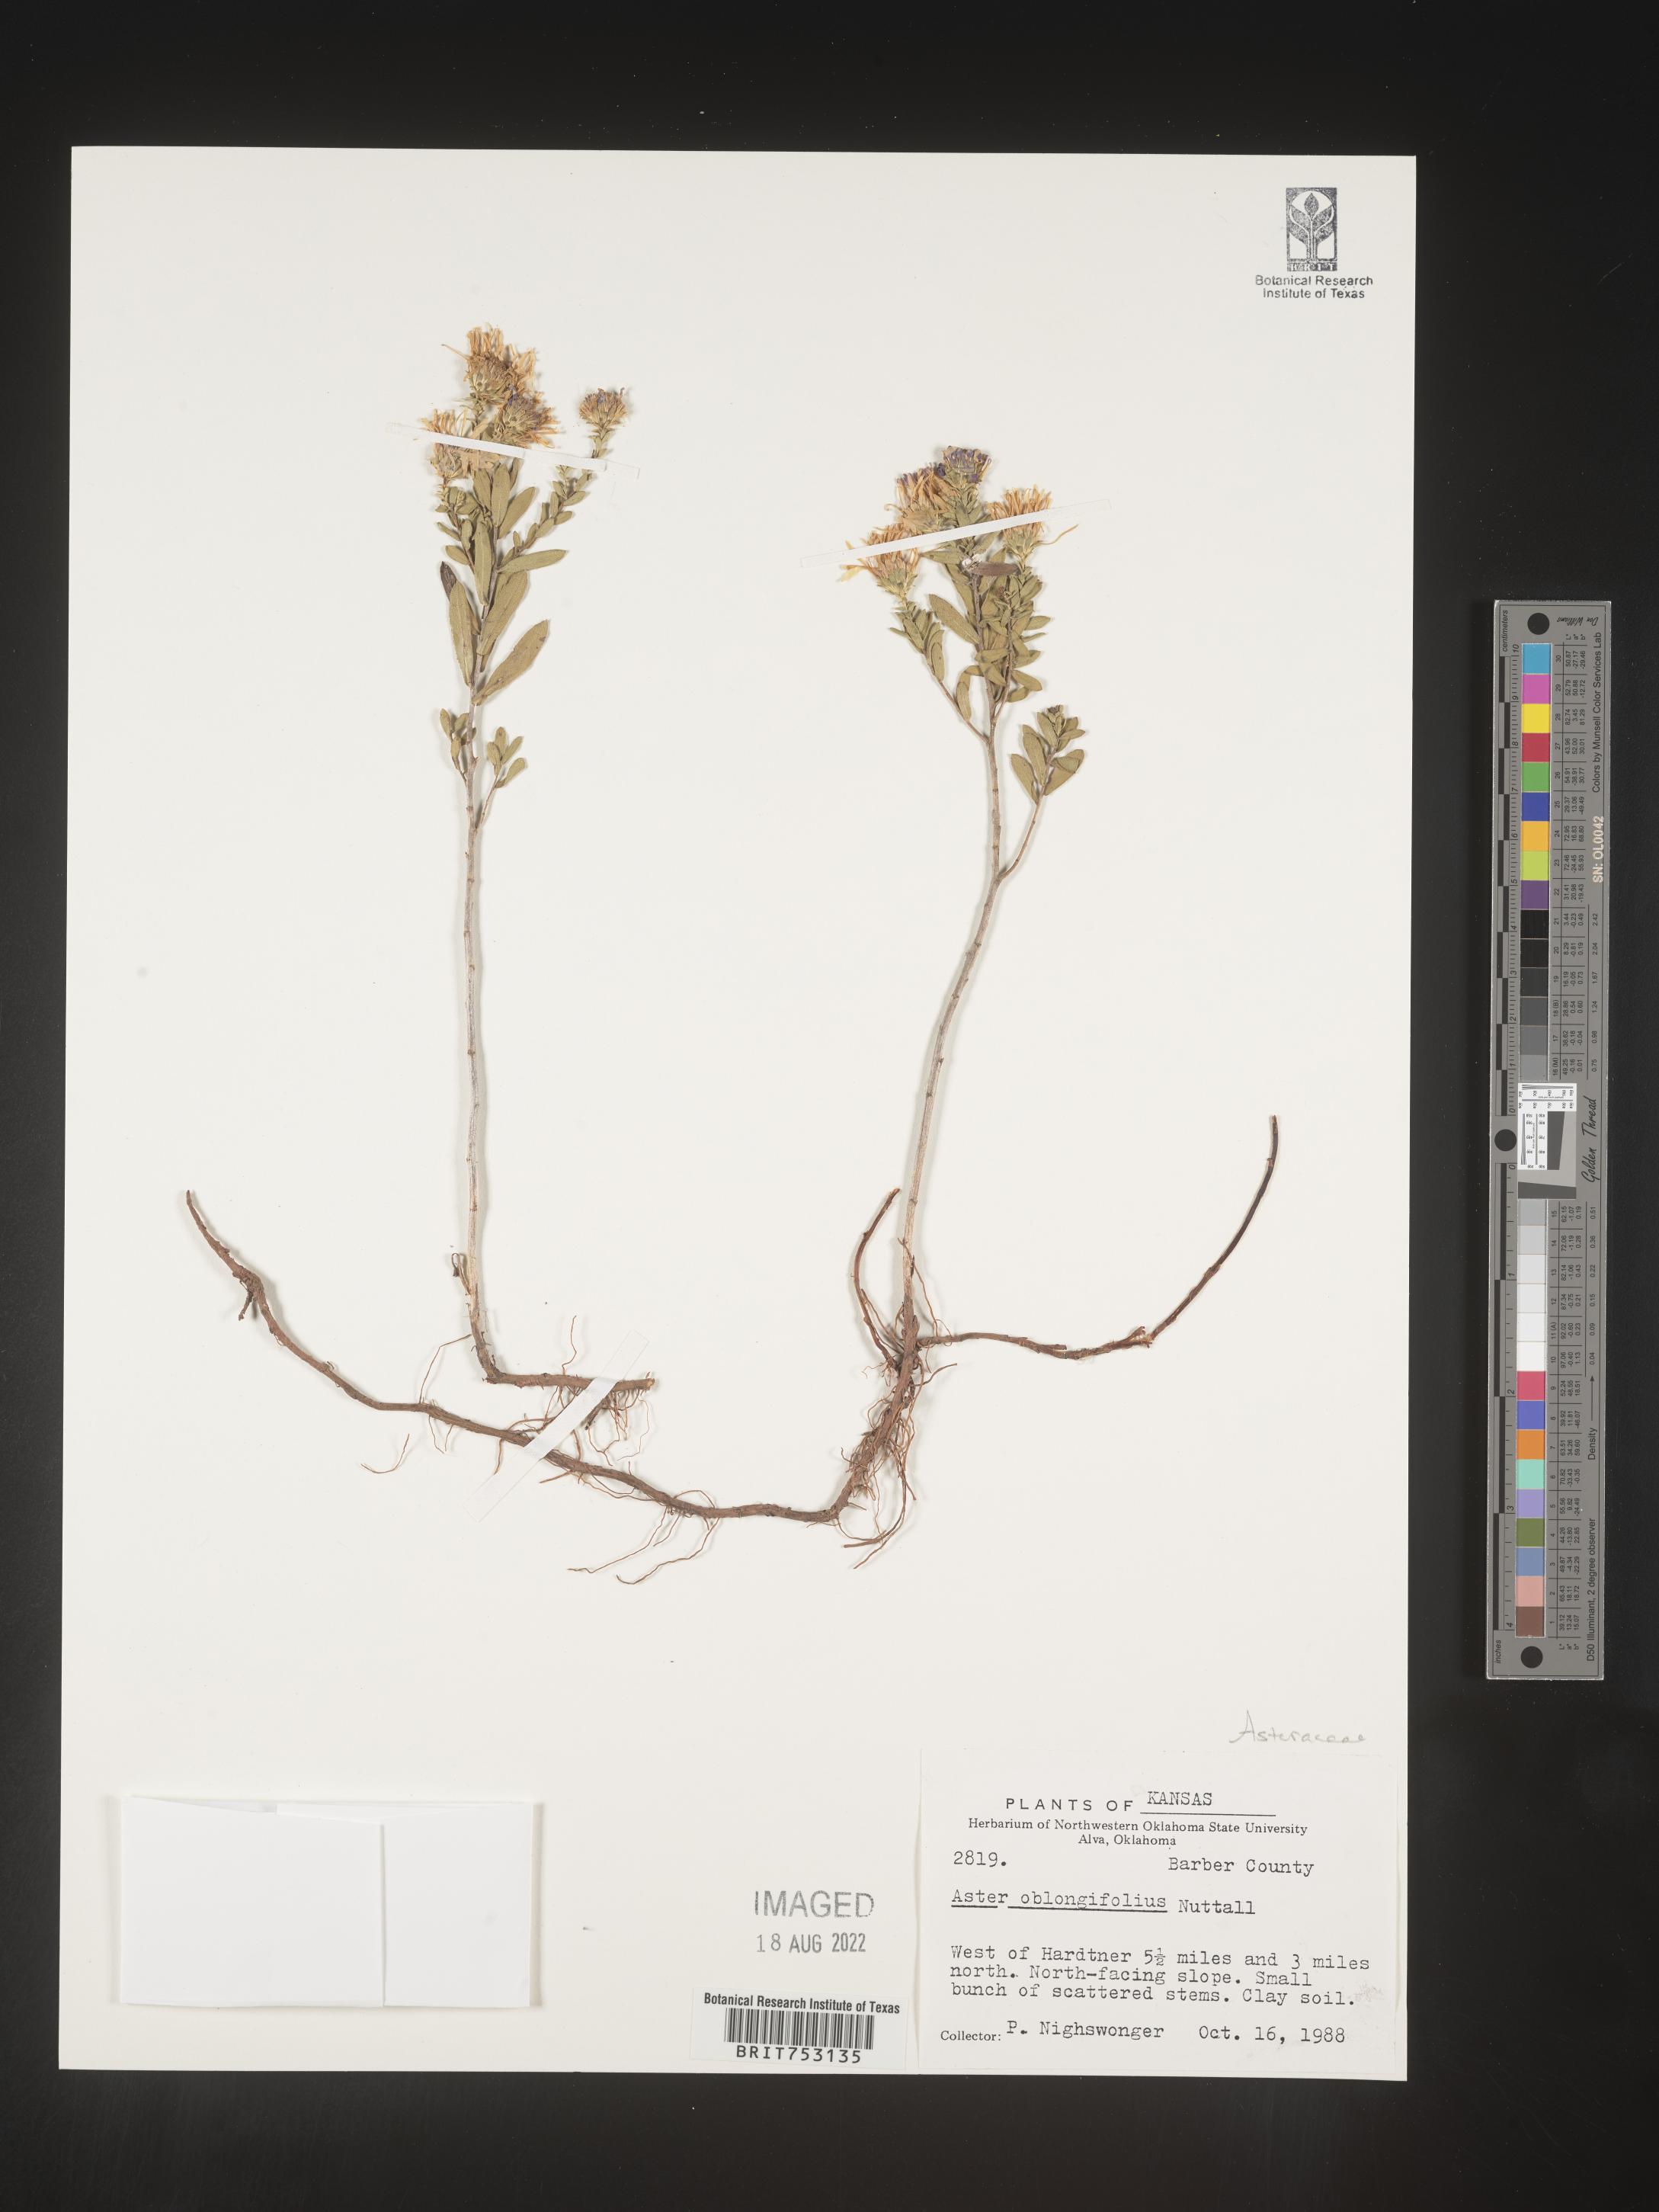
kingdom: Plantae
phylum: Tracheophyta
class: Magnoliopsida
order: Asterales
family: Asteraceae
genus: Symphyotrichum
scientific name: Symphyotrichum oblongifolium
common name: Aromatic aster
